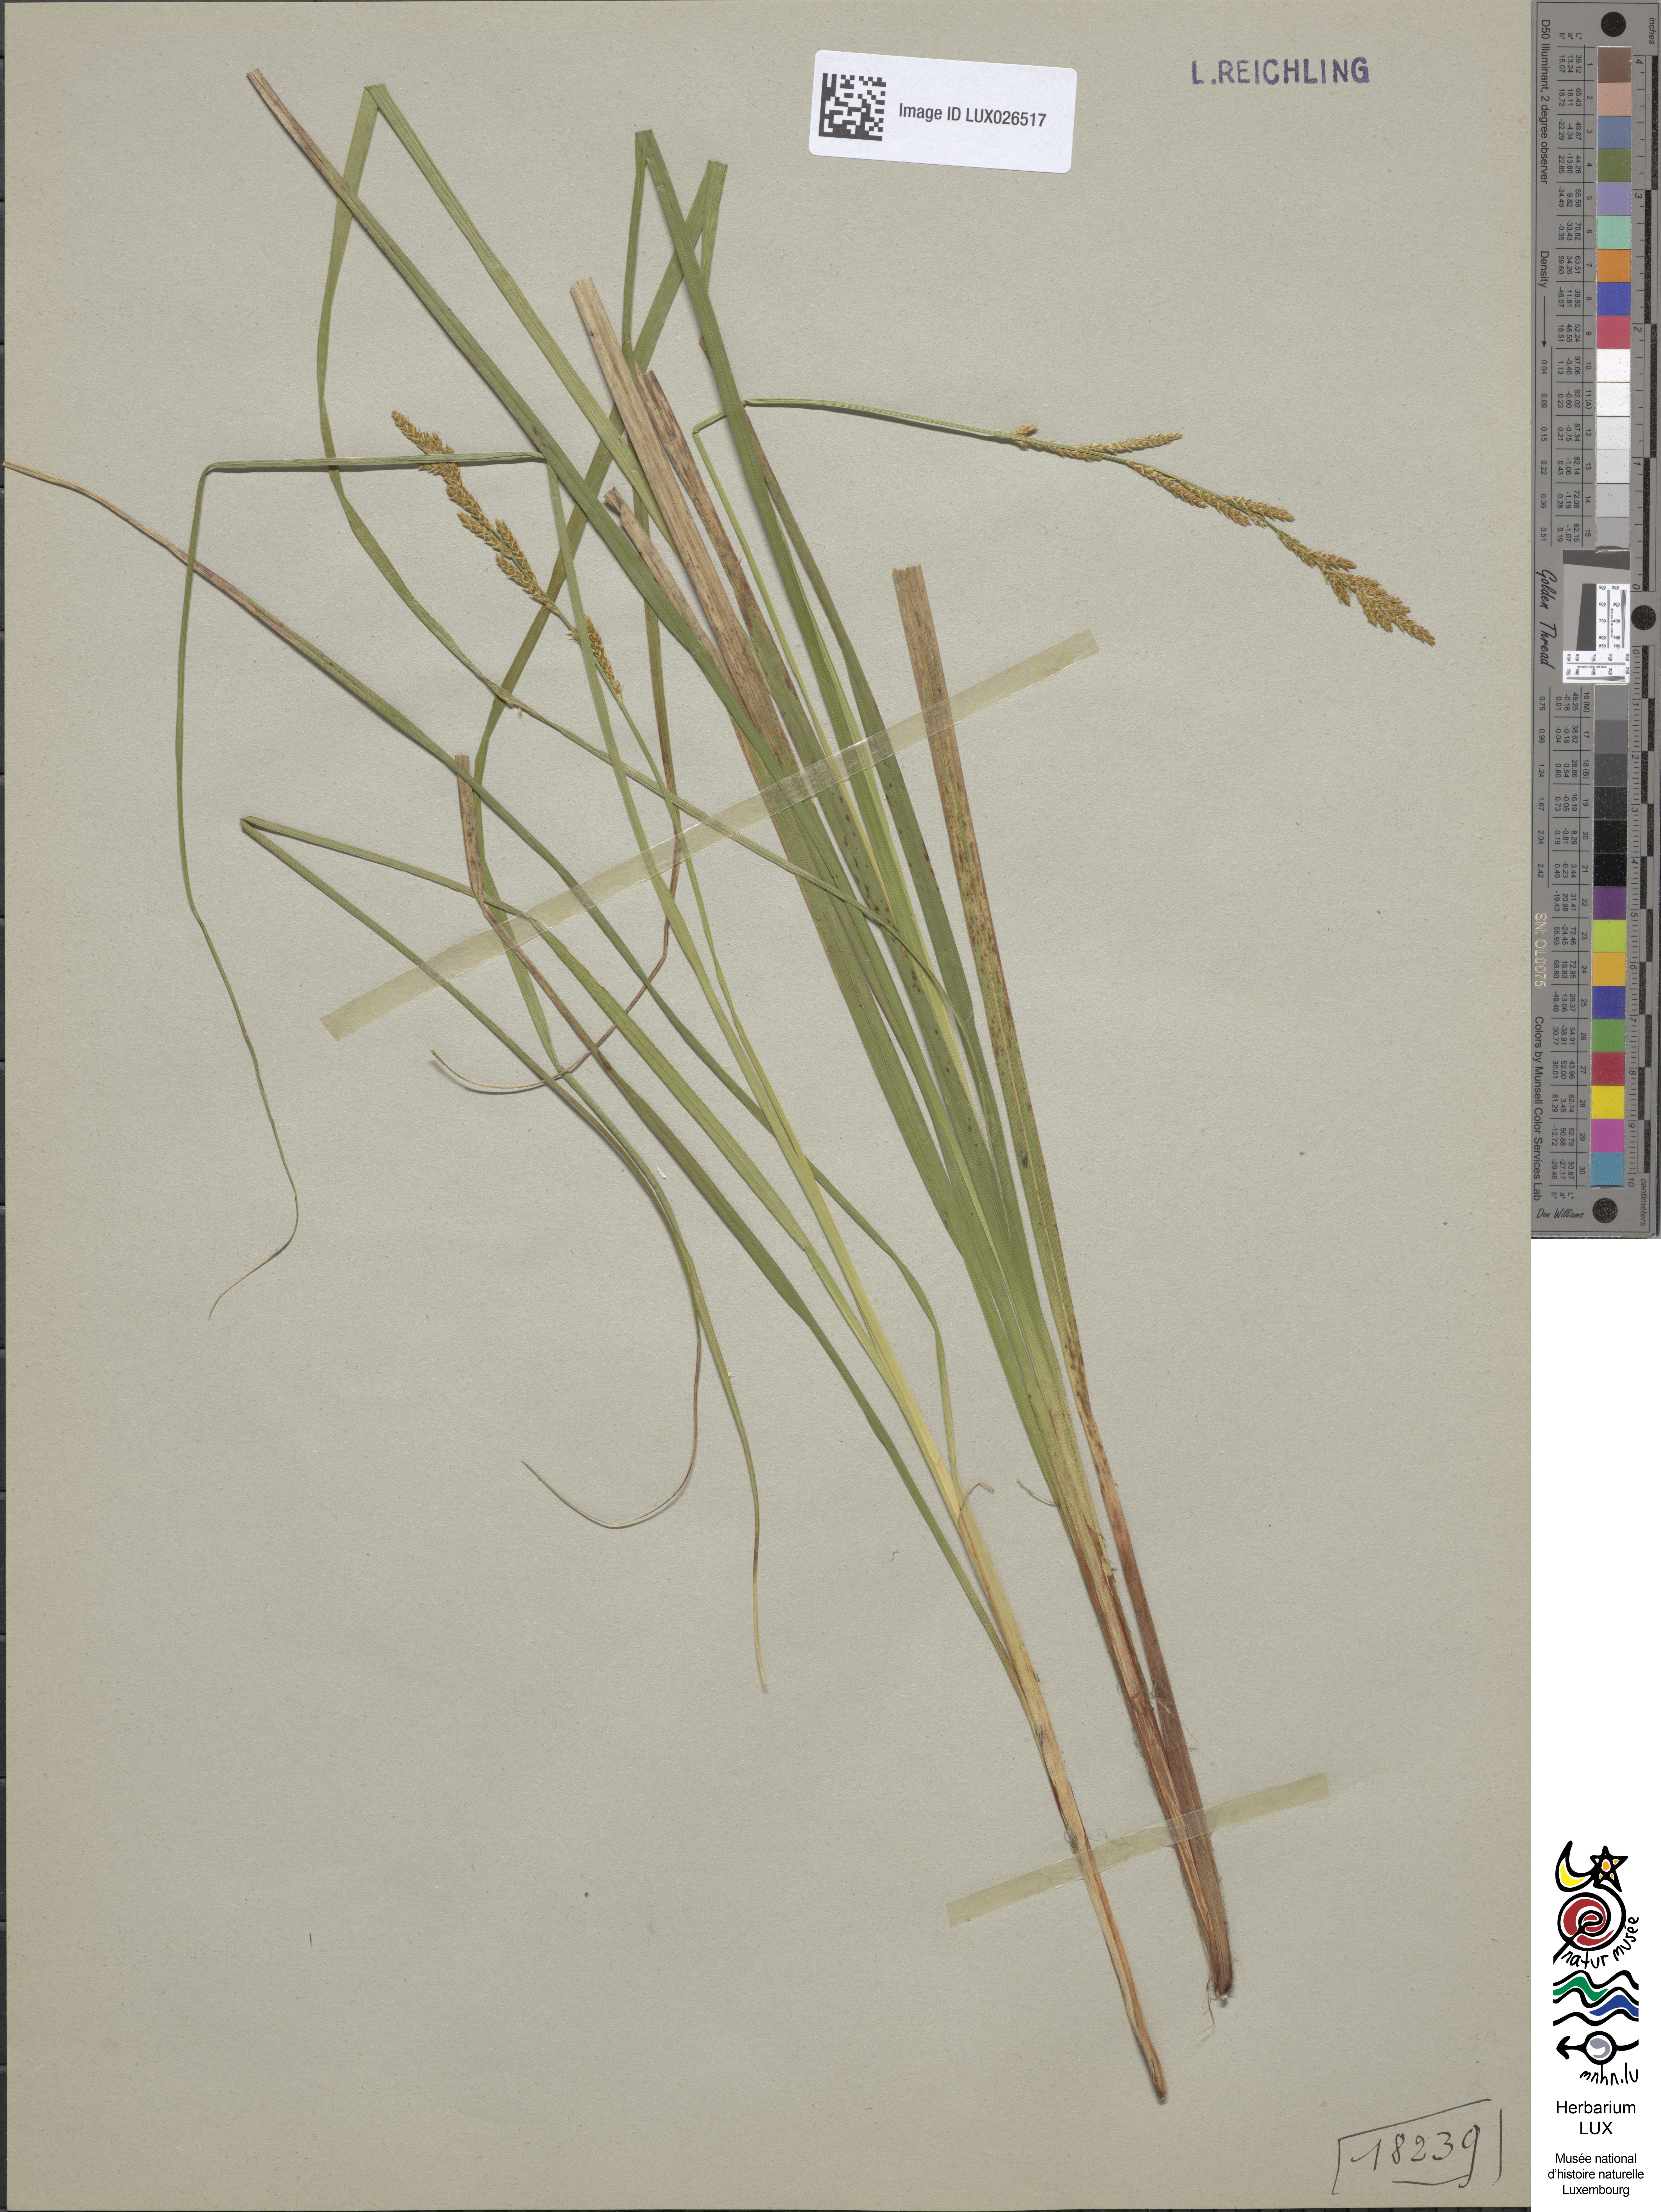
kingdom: Plantae
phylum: Tracheophyta
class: Liliopsida
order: Poales
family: Cyperaceae
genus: Carex
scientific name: Carex elongata
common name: Elongated sedge
